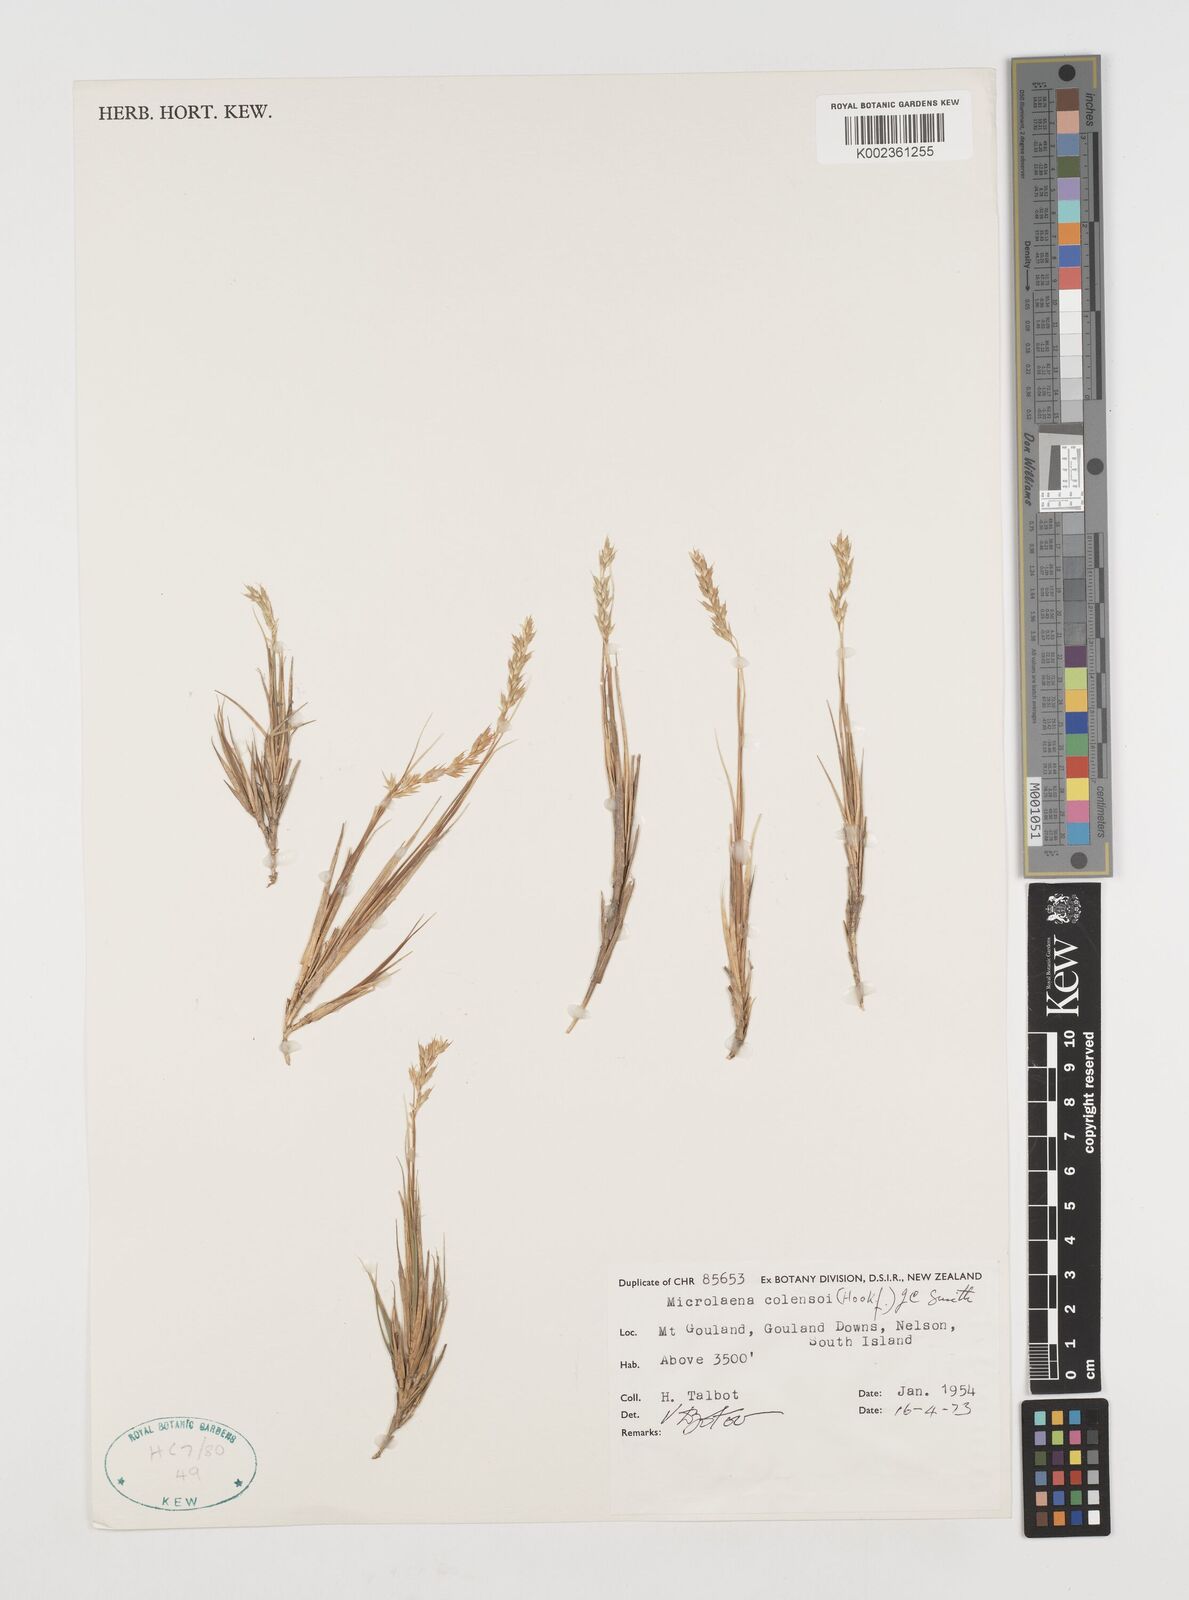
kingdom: Plantae
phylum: Tracheophyta
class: Liliopsida
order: Poales
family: Poaceae
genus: Zotovia
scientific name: Zotovia colensoi
